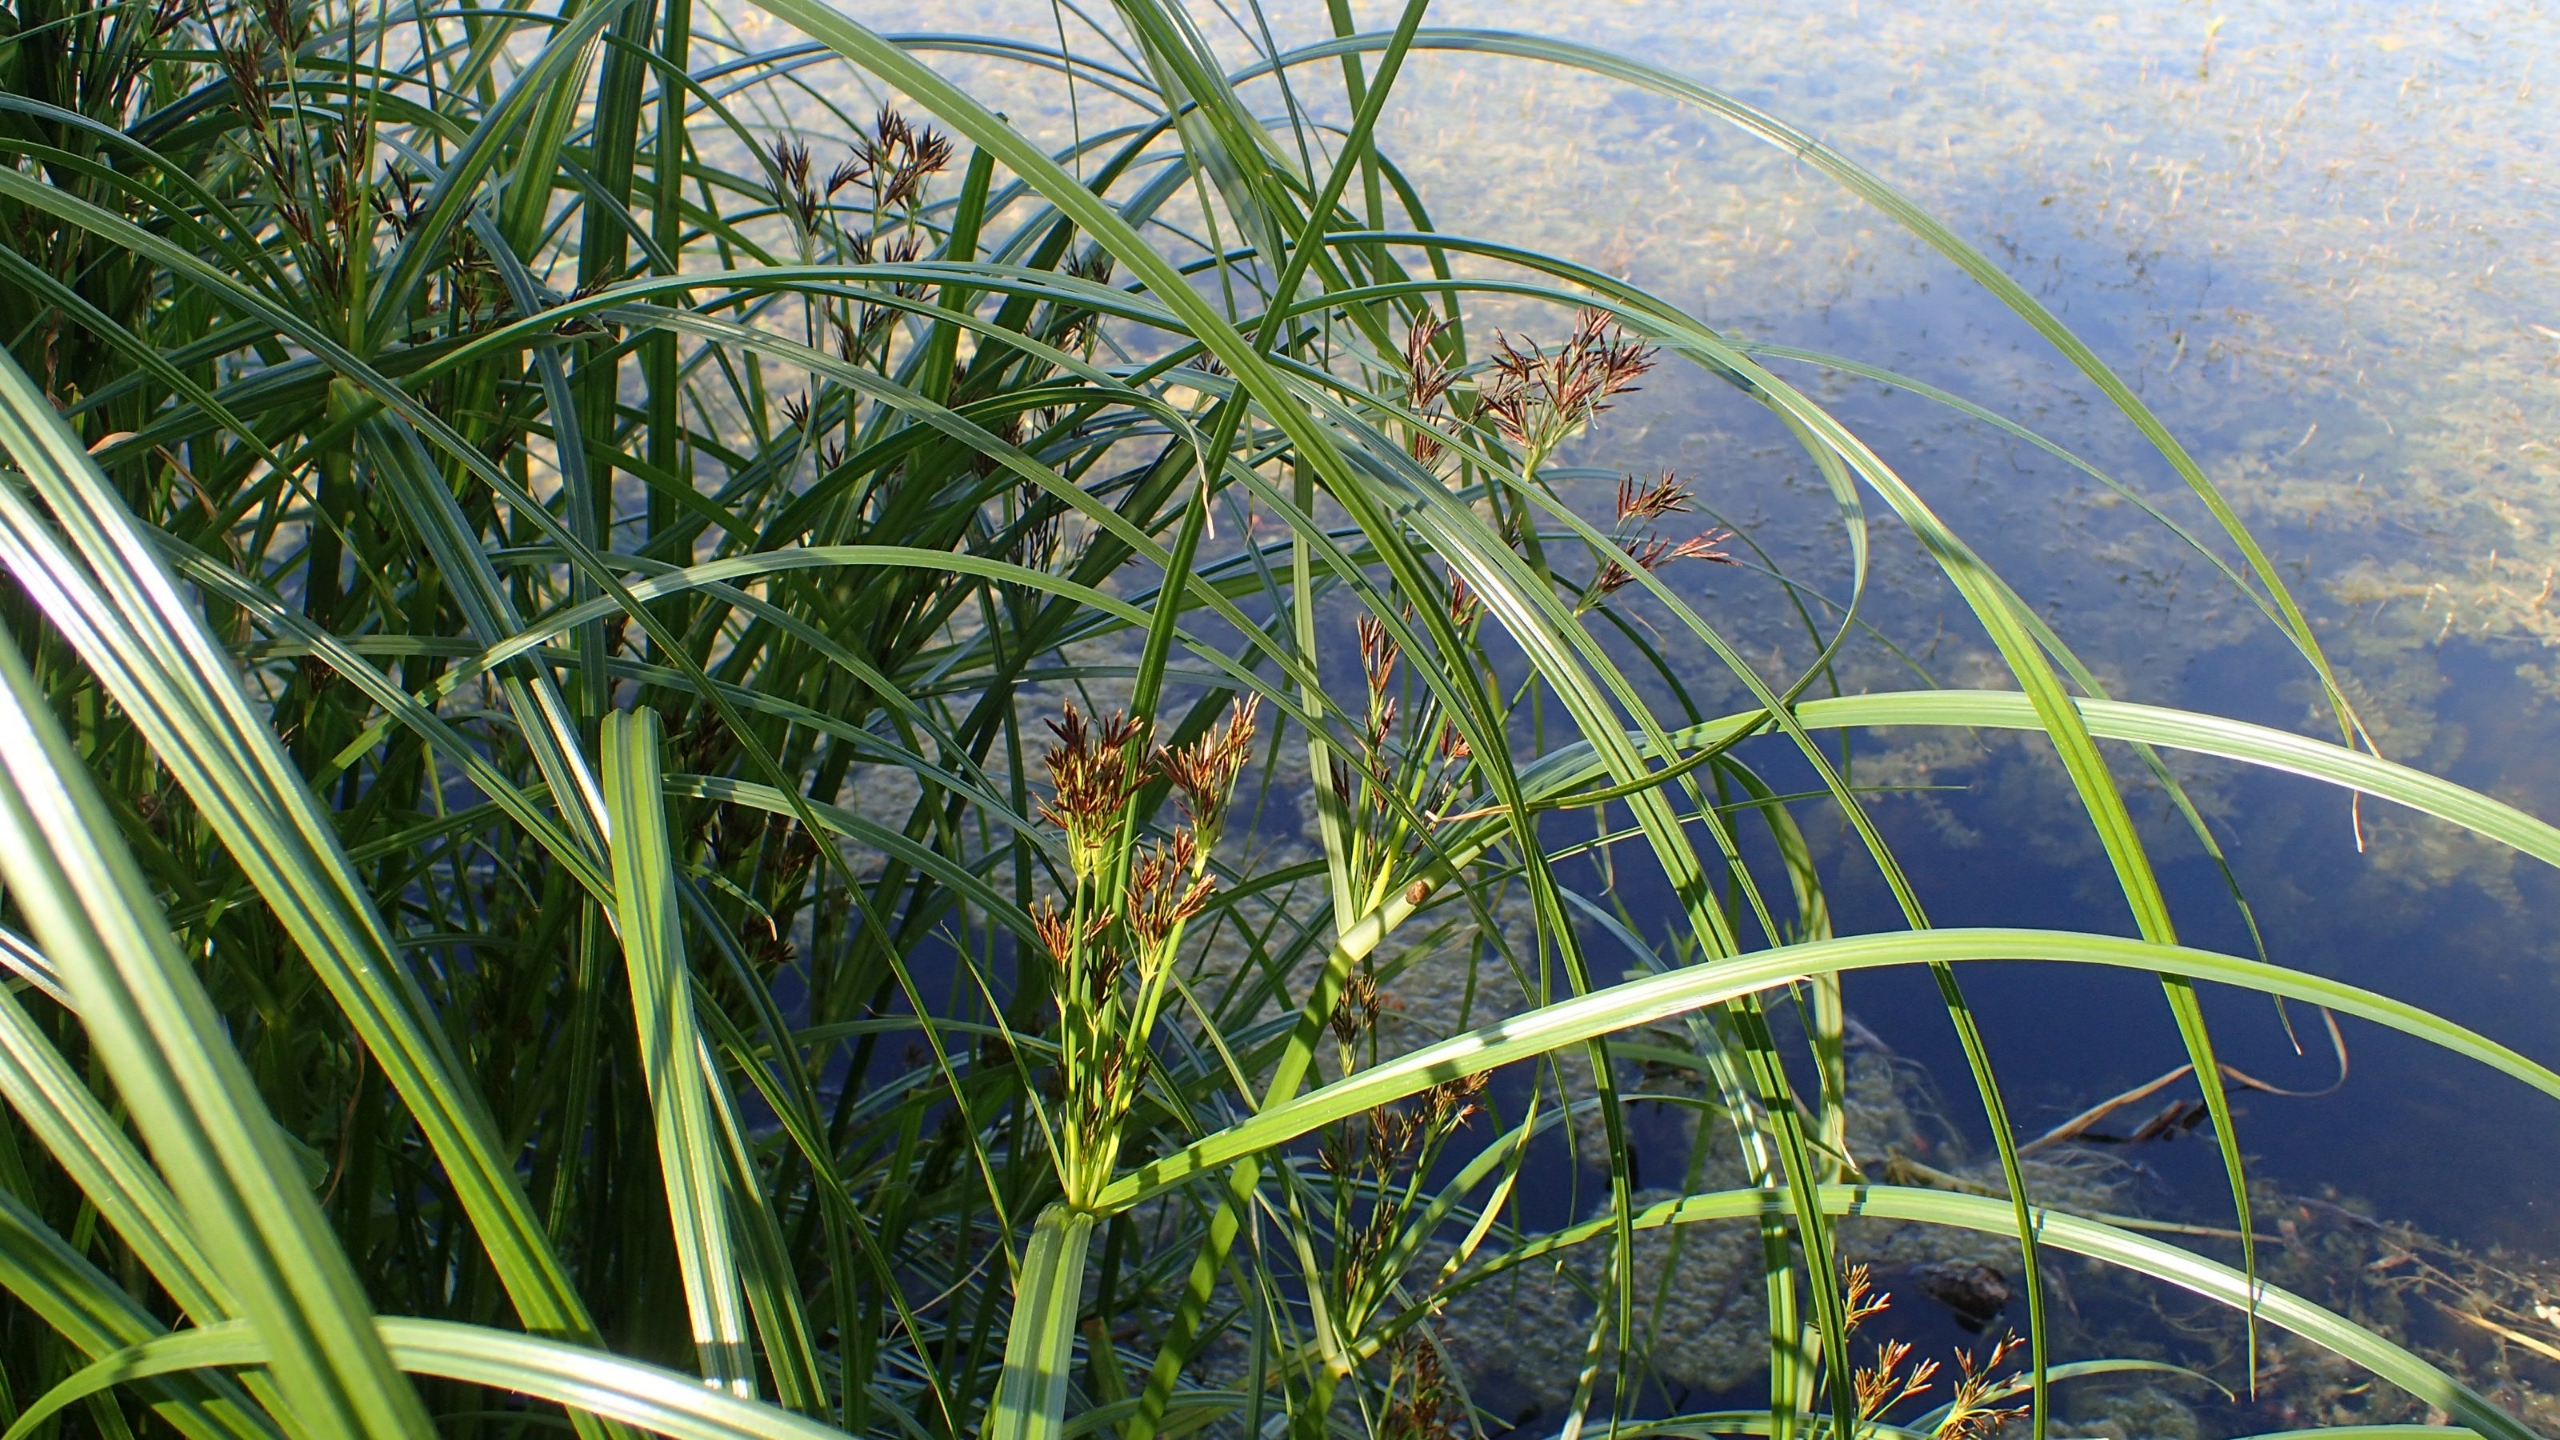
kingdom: Plantae
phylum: Tracheophyta
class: Liliopsida
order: Poales
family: Cyperaceae
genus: Cyperus
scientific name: Cyperus longus
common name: Smalbladet fladaks
